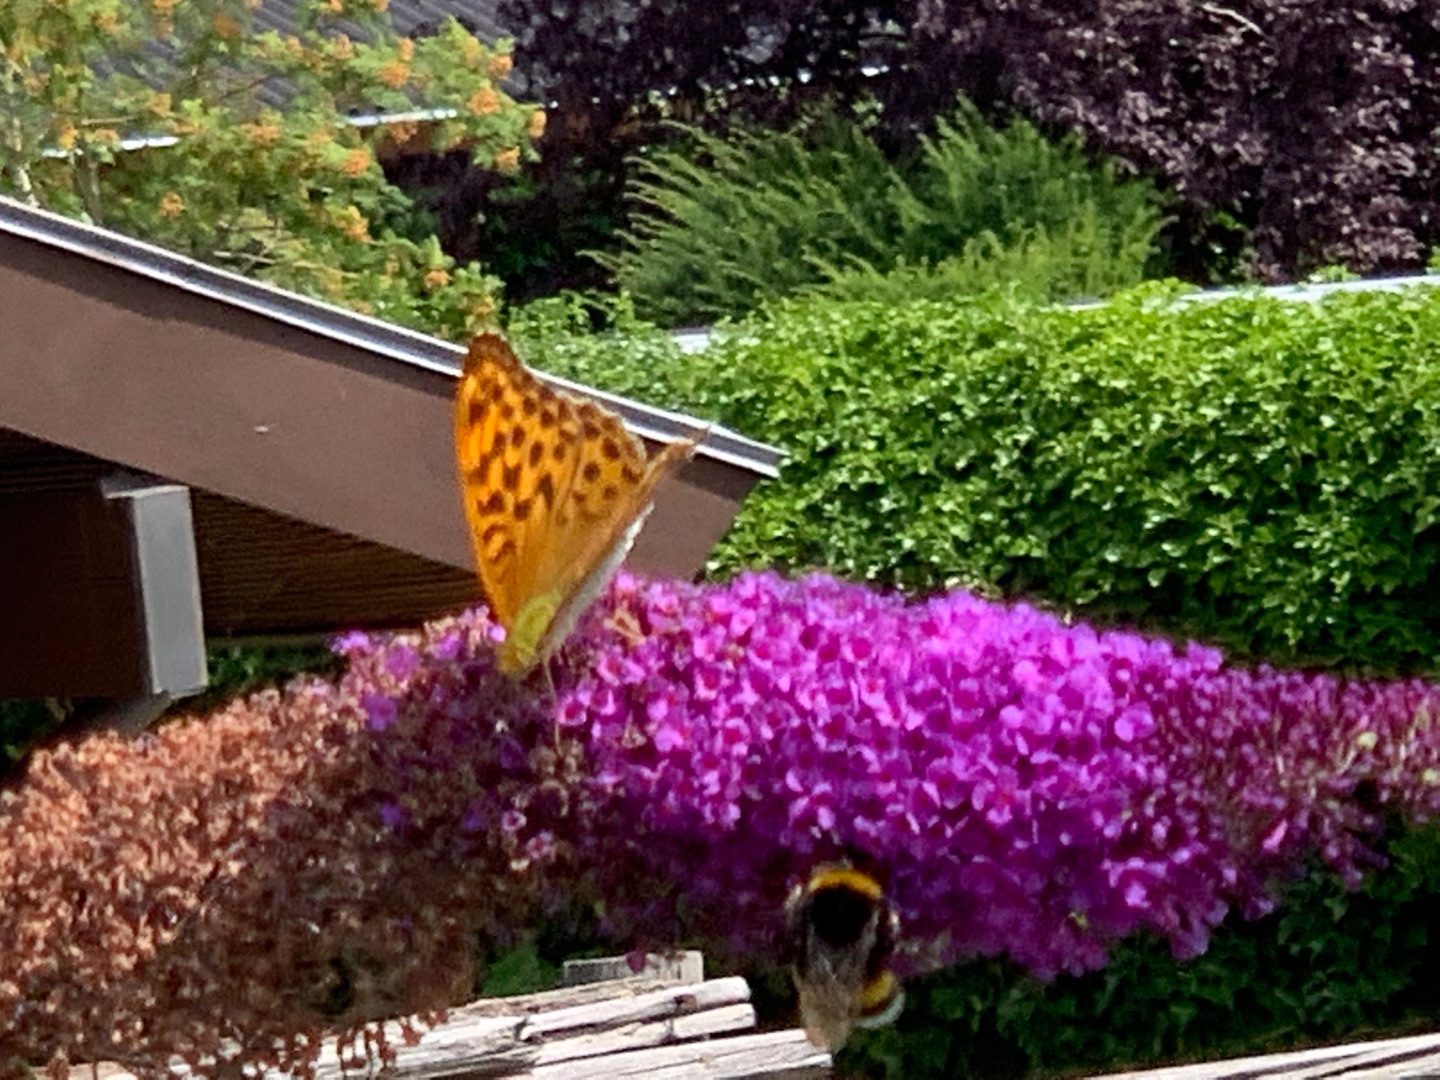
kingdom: Animalia
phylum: Arthropoda
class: Insecta
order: Lepidoptera
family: Nymphalidae
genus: Argynnis
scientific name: Argynnis paphia
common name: Kejserkåbe
